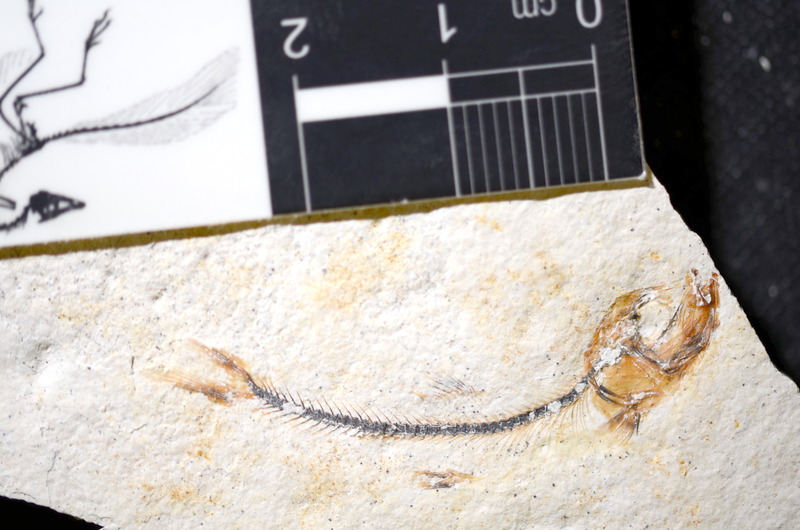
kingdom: Animalia
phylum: Chordata
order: Salmoniformes
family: Orthogonikleithridae
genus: Orthogonikleithrus
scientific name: Orthogonikleithrus hoelli
